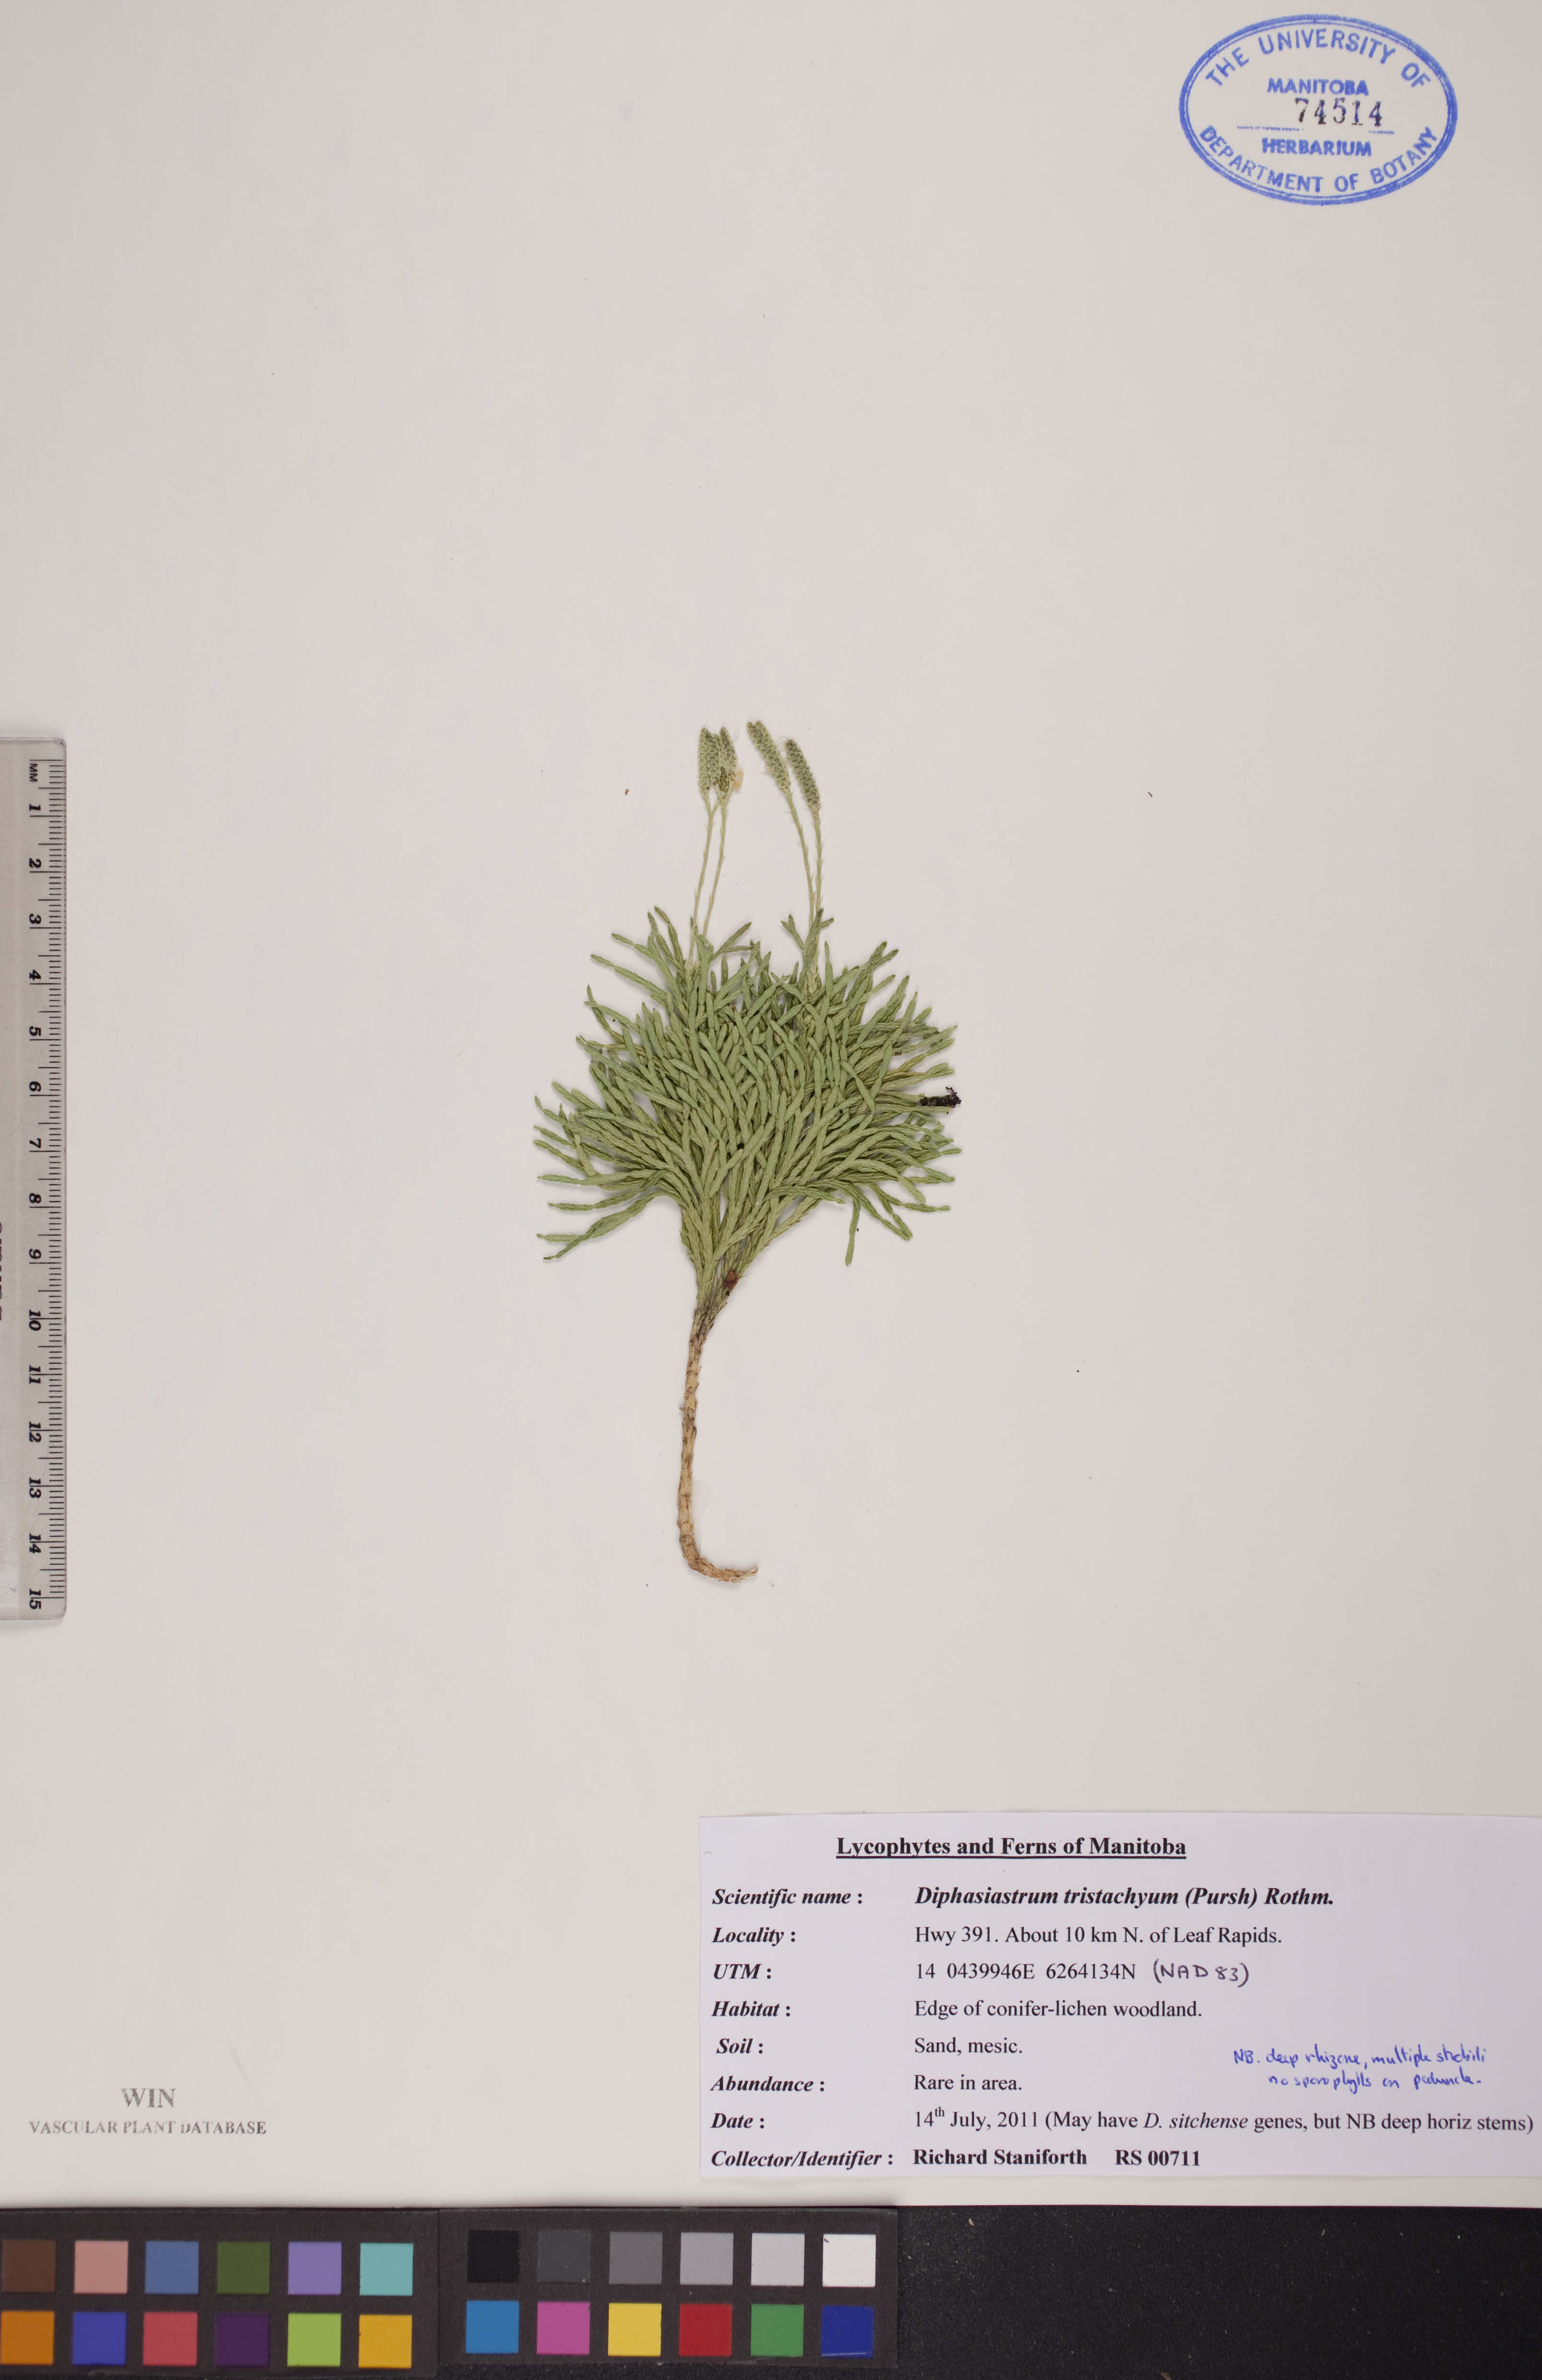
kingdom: Plantae
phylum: Tracheophyta
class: Lycopodiopsida
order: Lycopodiales
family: Lycopodiaceae
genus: Diphasiastrum
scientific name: Diphasiastrum tristachyum
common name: Blue ground-cedar
